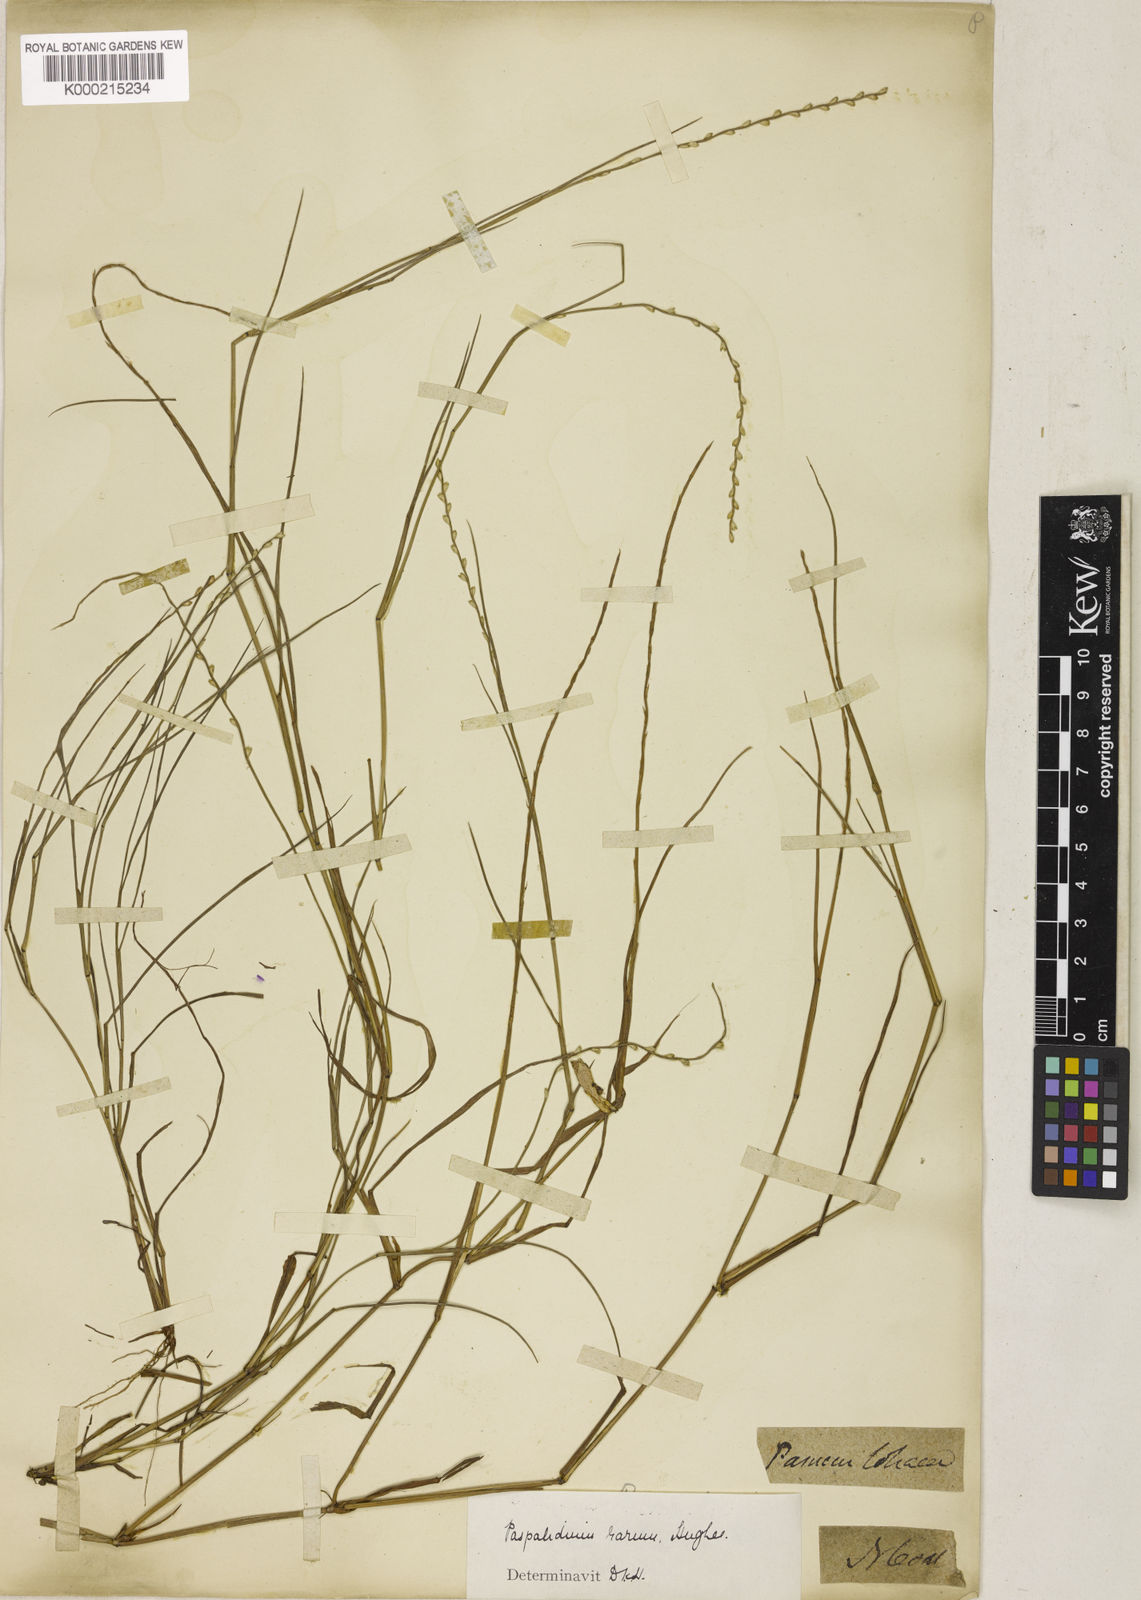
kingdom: Plantae
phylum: Tracheophyta
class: Liliopsida
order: Poales
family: Poaceae
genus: Setaria
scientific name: Setaria rara
